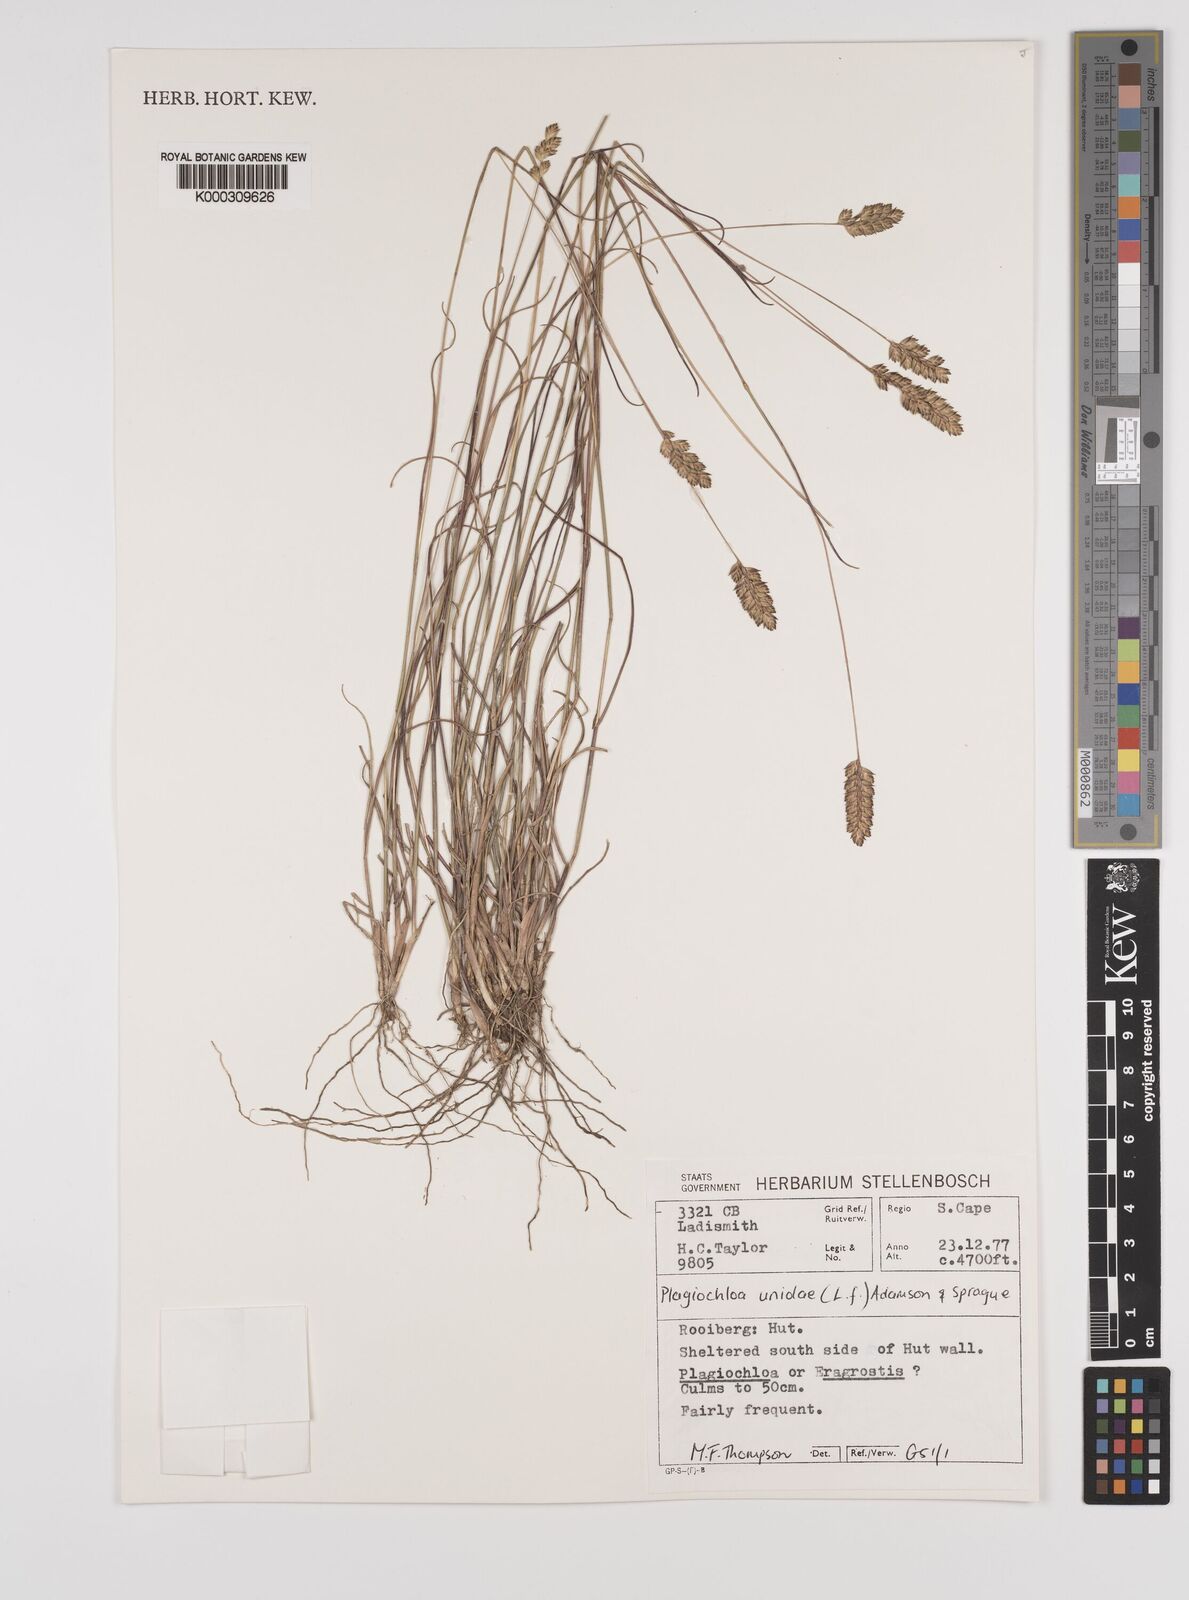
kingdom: Plantae
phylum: Tracheophyta
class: Liliopsida
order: Poales
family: Poaceae
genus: Tribolium
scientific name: Tribolium uniolae
